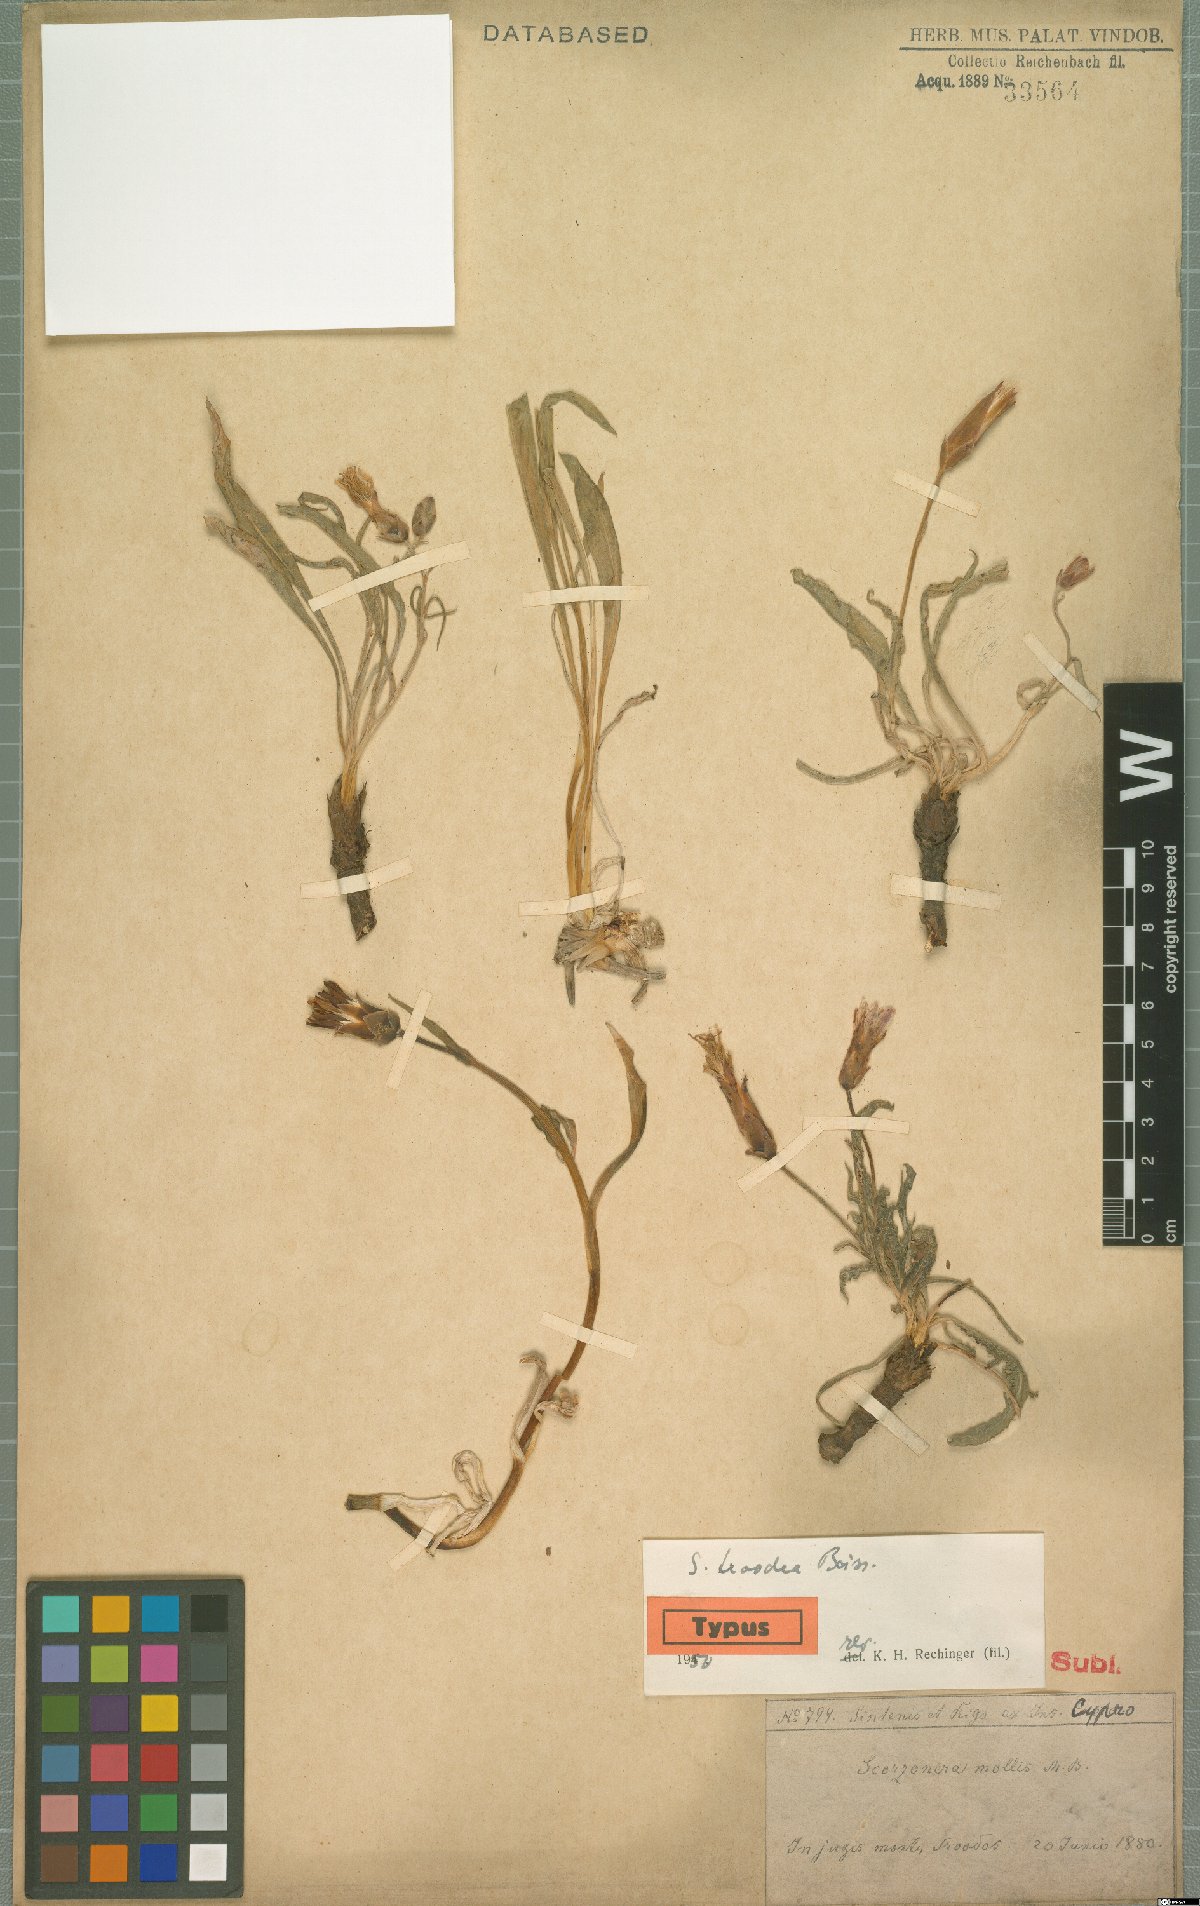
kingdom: Plantae
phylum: Tracheophyta
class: Magnoliopsida
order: Asterales
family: Asteraceae
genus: Pseudopodospermum
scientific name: Pseudopodospermum troodeum
